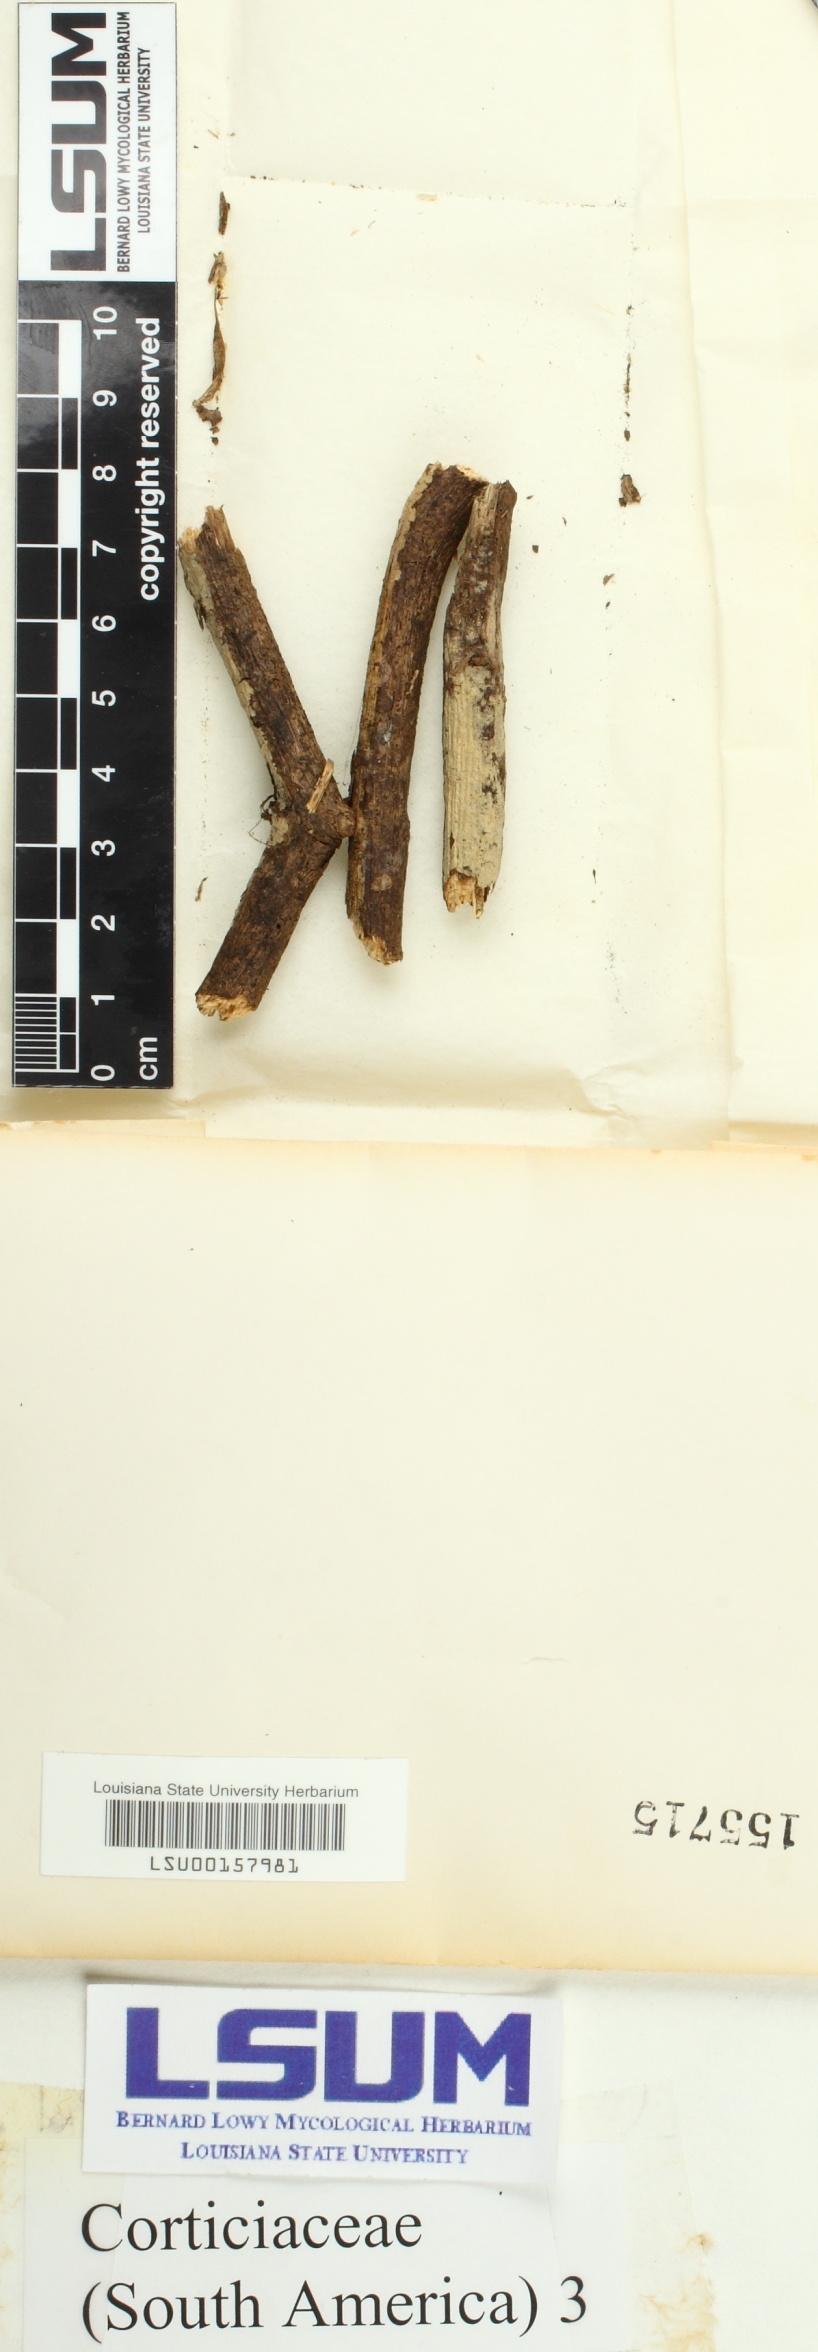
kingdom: Fungi
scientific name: Fungi
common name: Fungi
